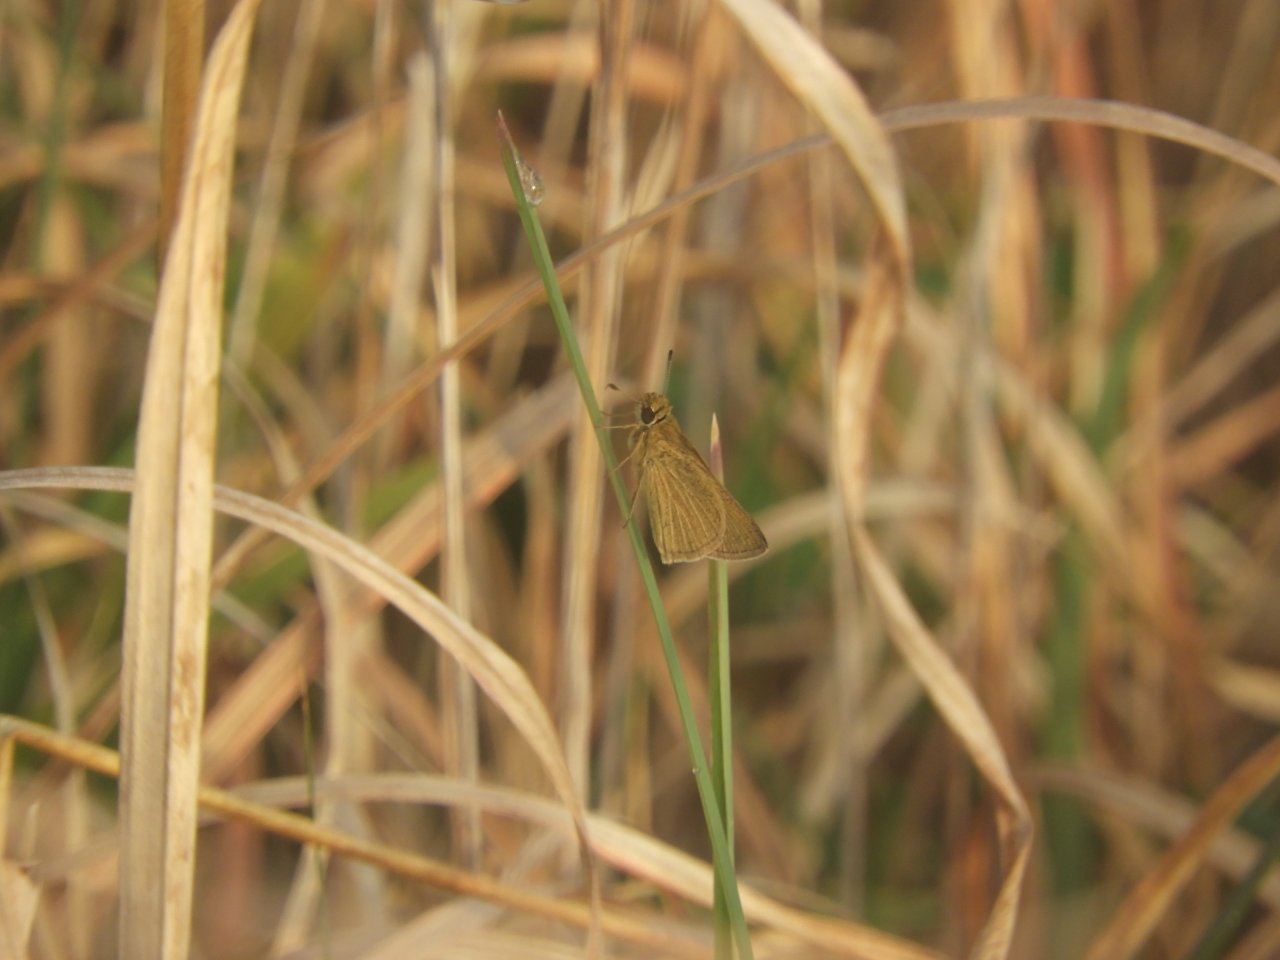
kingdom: Animalia
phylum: Arthropoda
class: Insecta
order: Lepidoptera
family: Hesperiidae
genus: Nastra
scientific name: Nastra lherminier
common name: Swarthy Skipper
